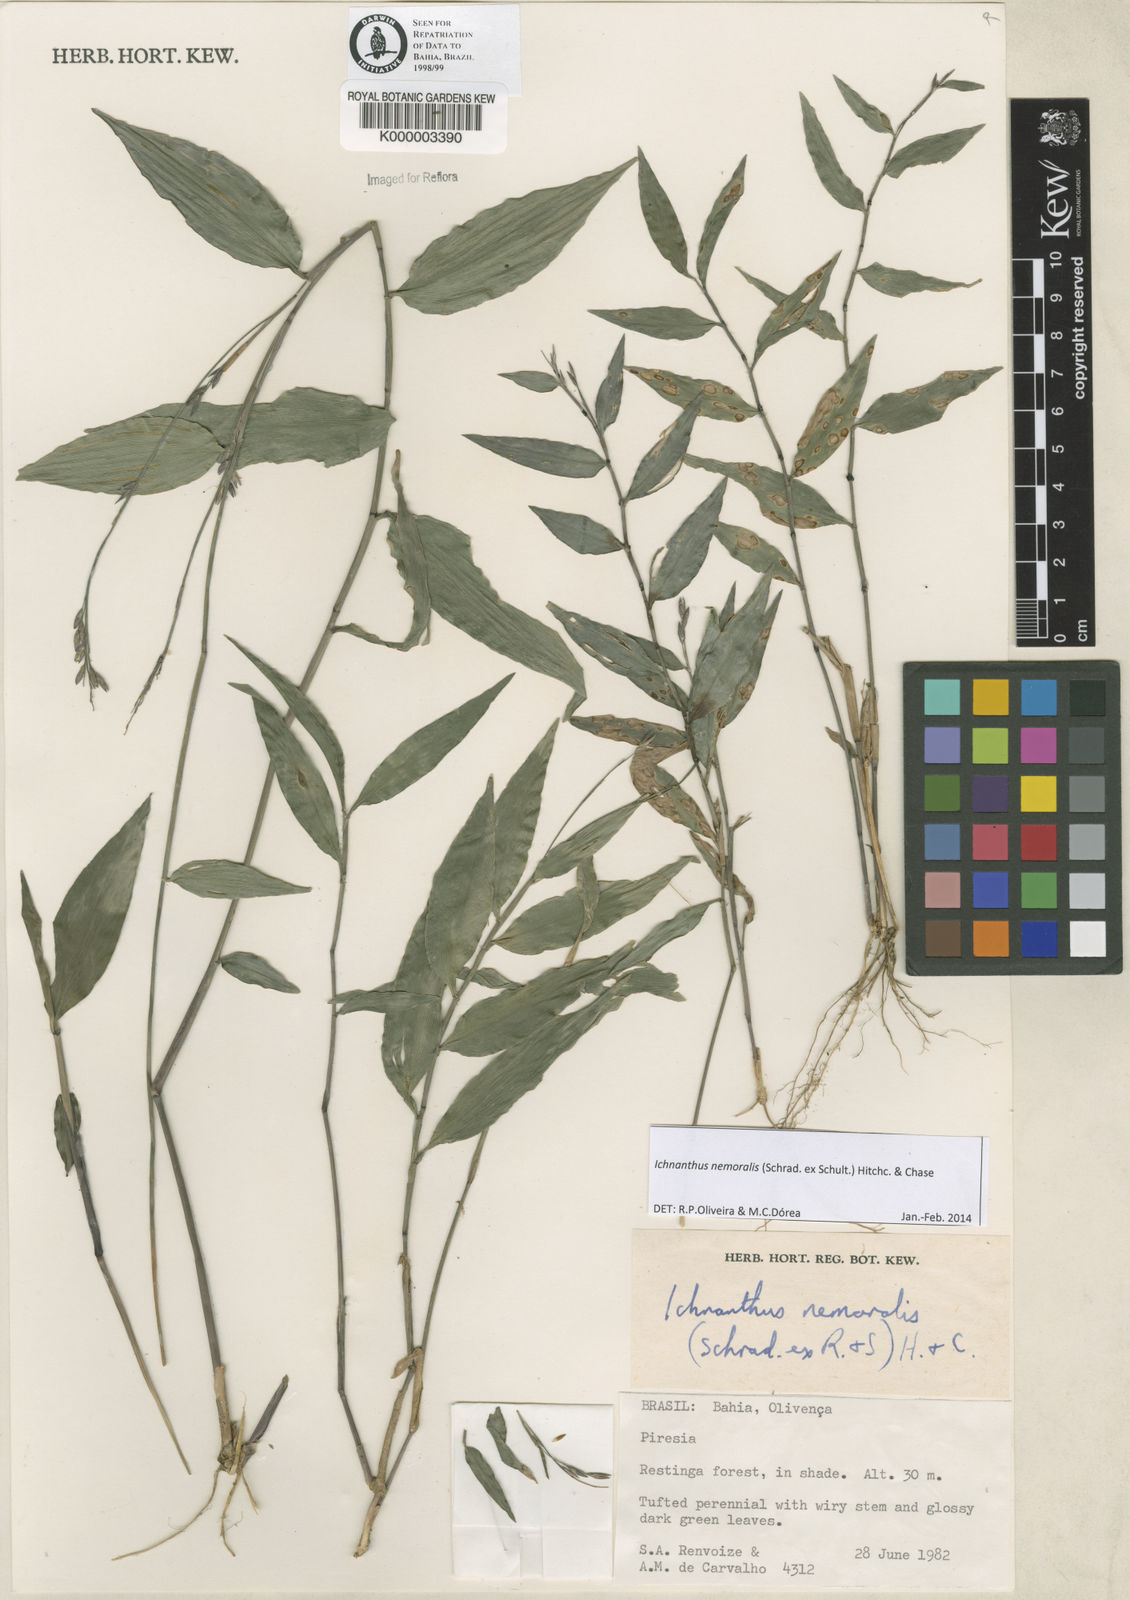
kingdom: Plantae
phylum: Tracheophyta
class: Liliopsida
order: Poales
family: Poaceae
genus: Ichnanthus
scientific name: Ichnanthus nemoralis
